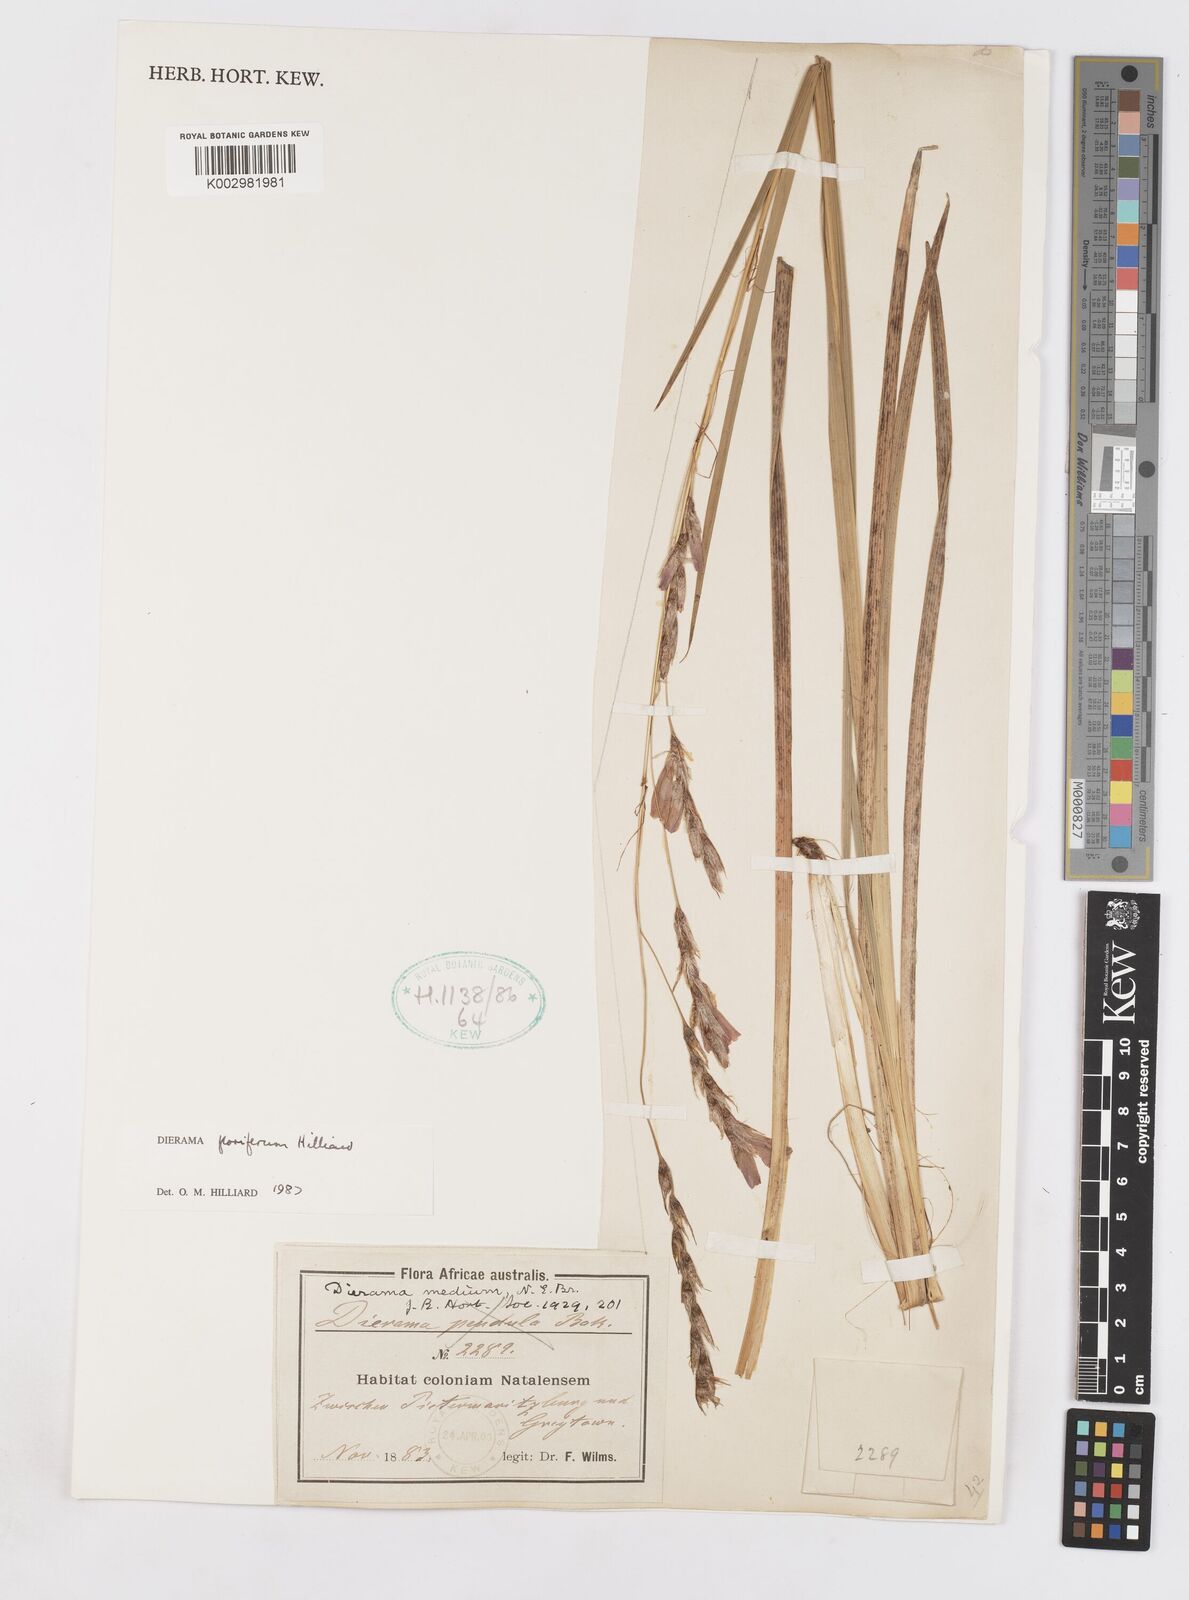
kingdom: Plantae
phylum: Tracheophyta
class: Liliopsida
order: Asparagales
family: Iridaceae
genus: Dierama
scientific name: Dierama floriferum
